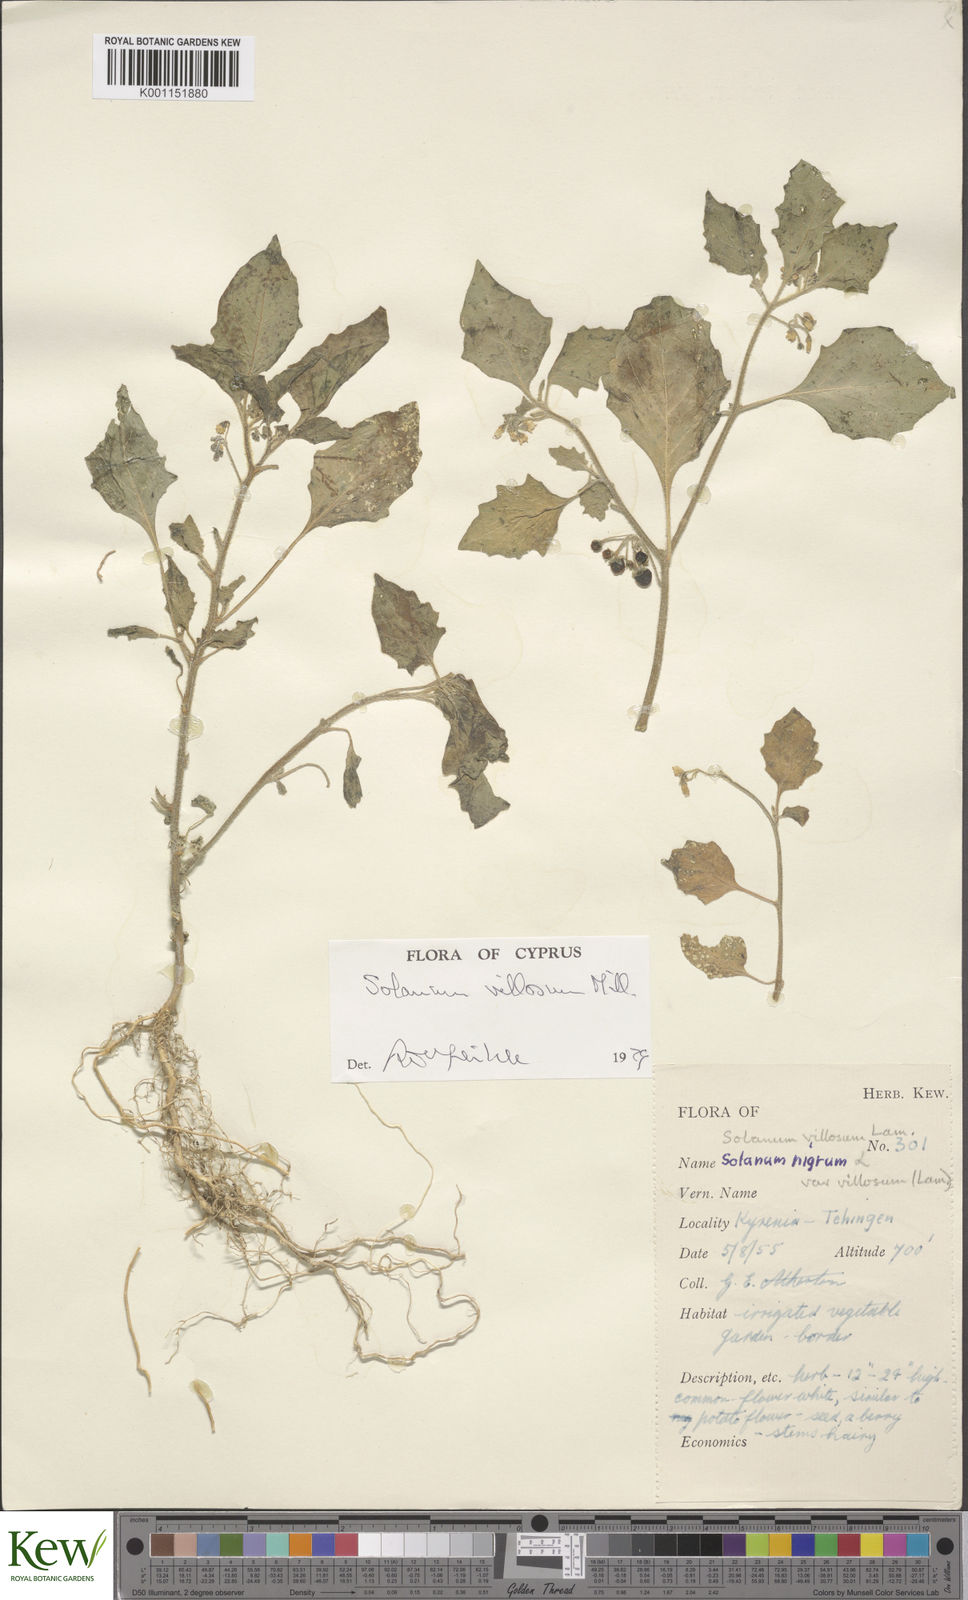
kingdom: Plantae
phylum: Tracheophyta
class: Magnoliopsida
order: Solanales
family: Solanaceae
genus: Solanum
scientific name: Solanum villosum
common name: Red nightshade
